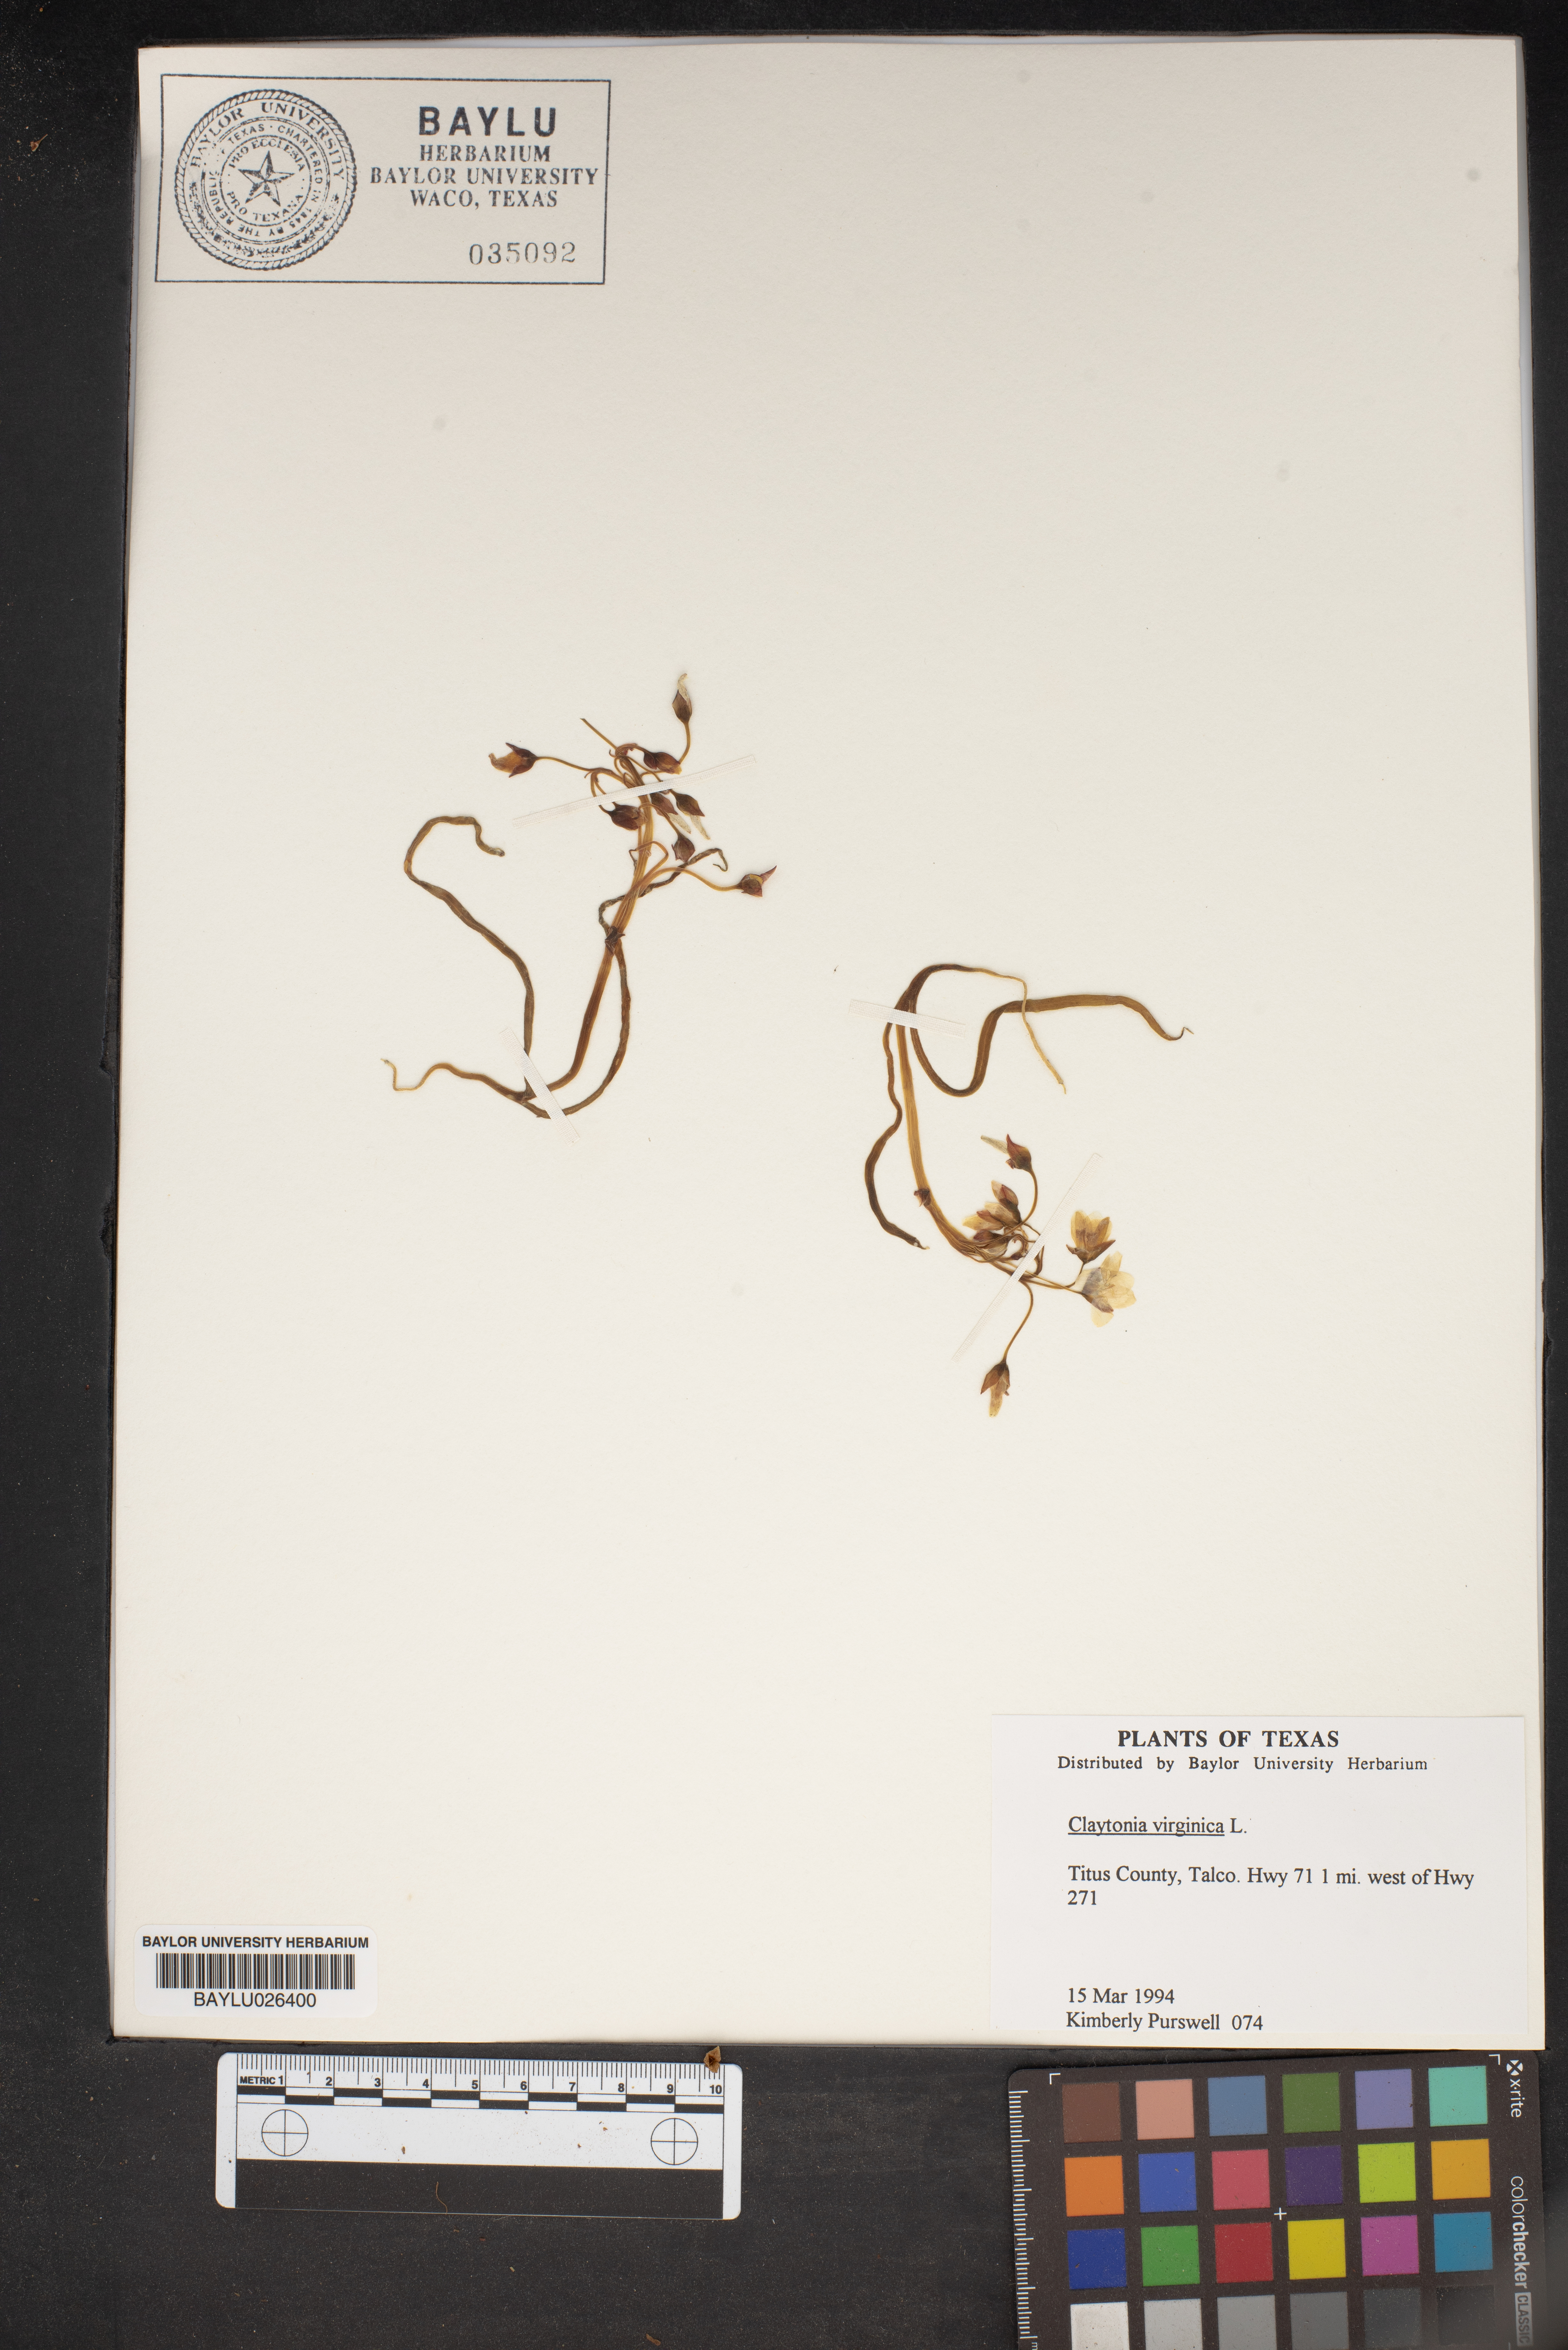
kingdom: Plantae
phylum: Tracheophyta
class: Magnoliopsida
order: Caryophyllales
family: Montiaceae
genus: Claytonia
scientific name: Claytonia virginica
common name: Virginia springbeauty
